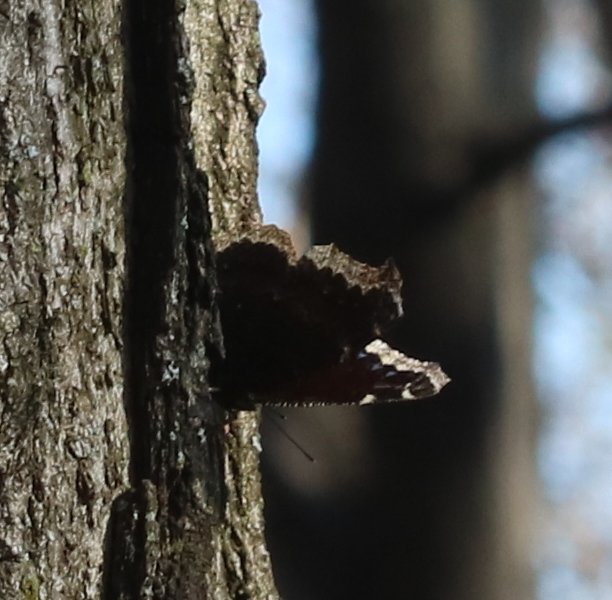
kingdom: Animalia
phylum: Arthropoda
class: Insecta
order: Lepidoptera
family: Nymphalidae
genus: Nymphalis
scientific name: Nymphalis antiopa
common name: Mourning Cloak
